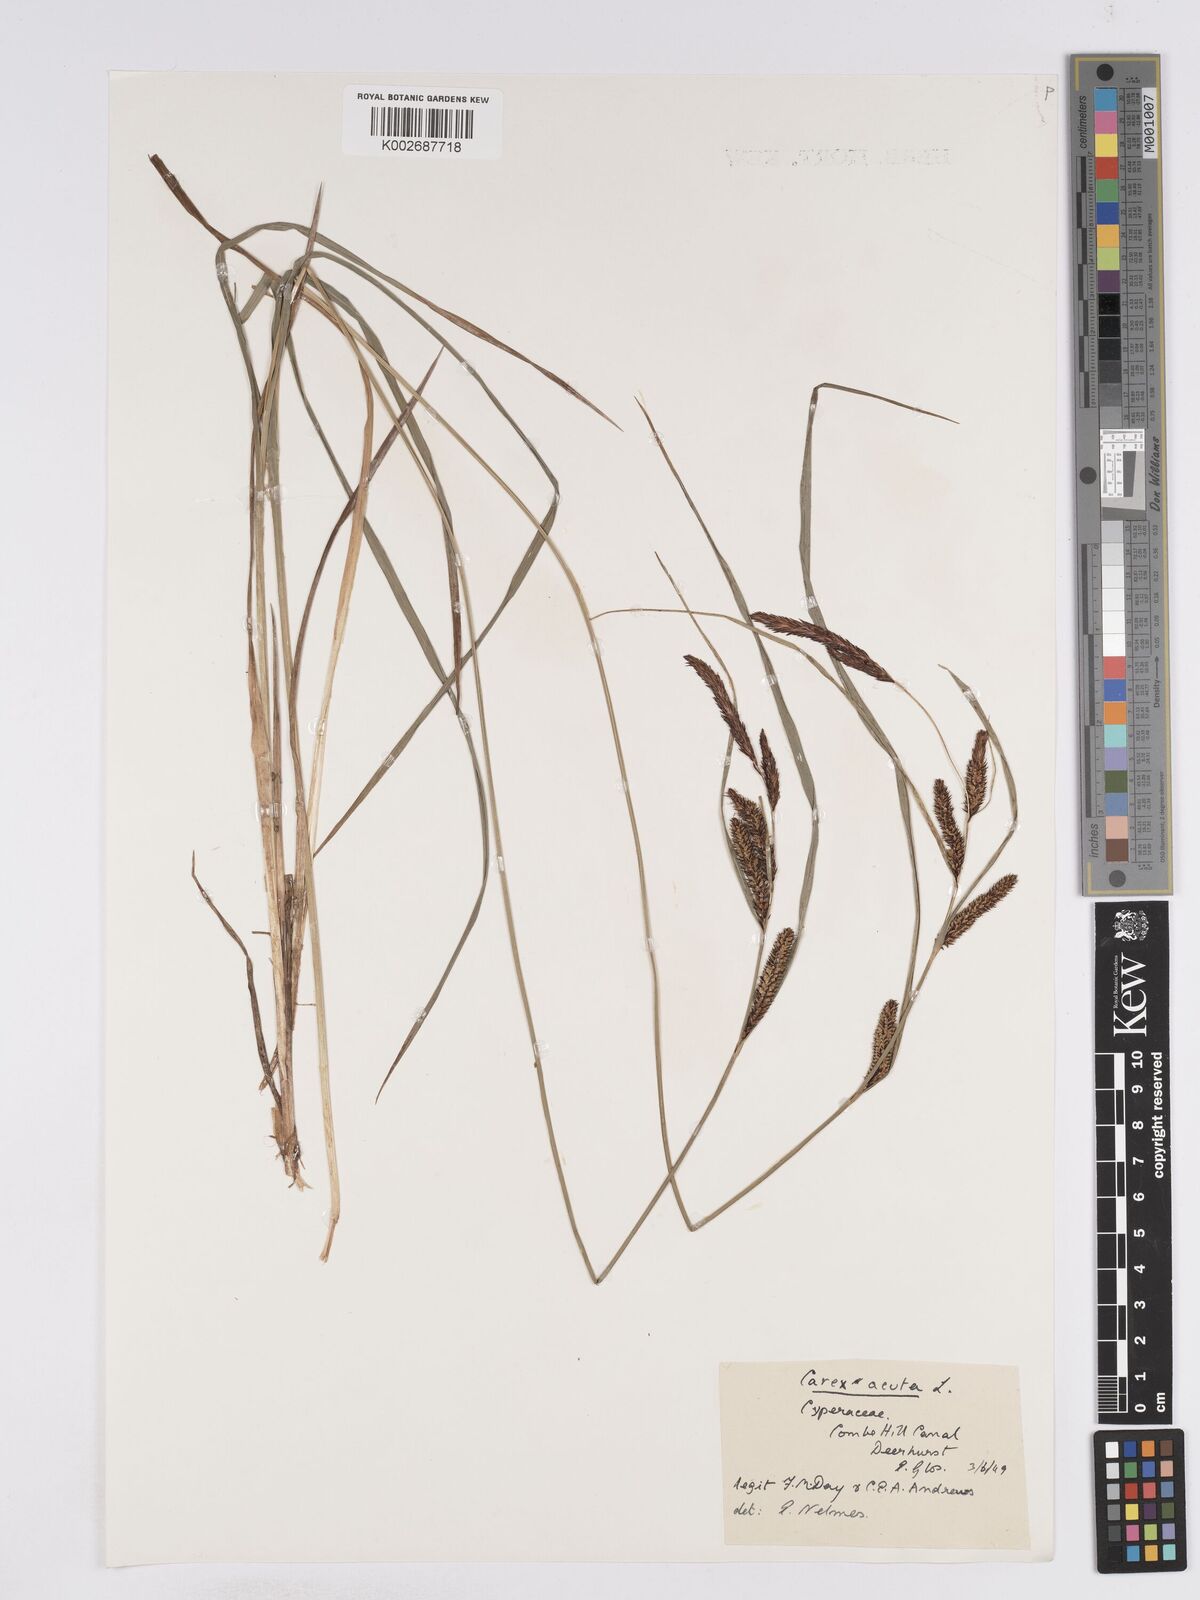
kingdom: Plantae
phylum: Tracheophyta
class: Liliopsida
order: Poales
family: Cyperaceae
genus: Carex
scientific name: Carex acuta
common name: Slender tufted-sedge
